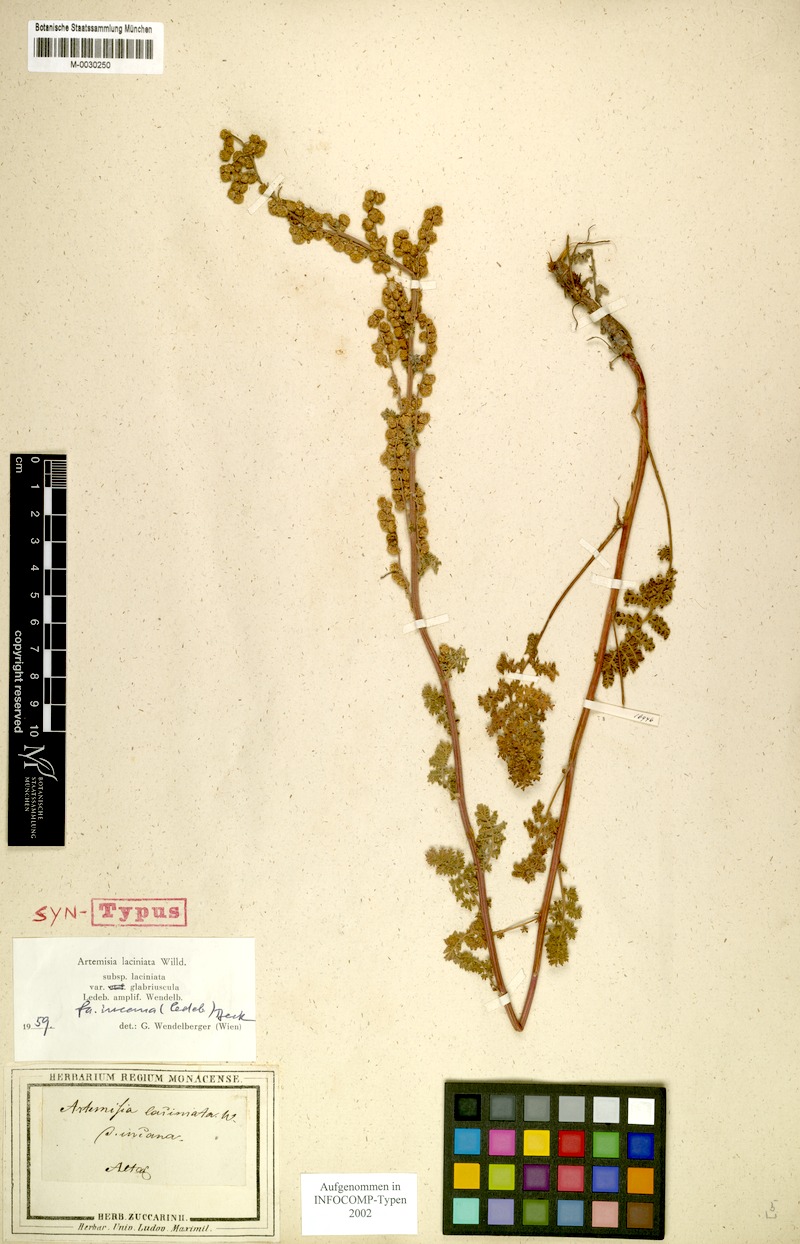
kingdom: Plantae
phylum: Tracheophyta
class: Magnoliopsida
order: Asterales
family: Asteraceae
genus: Artemisia
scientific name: Artemisia laciniata
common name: Siberian wormwood
